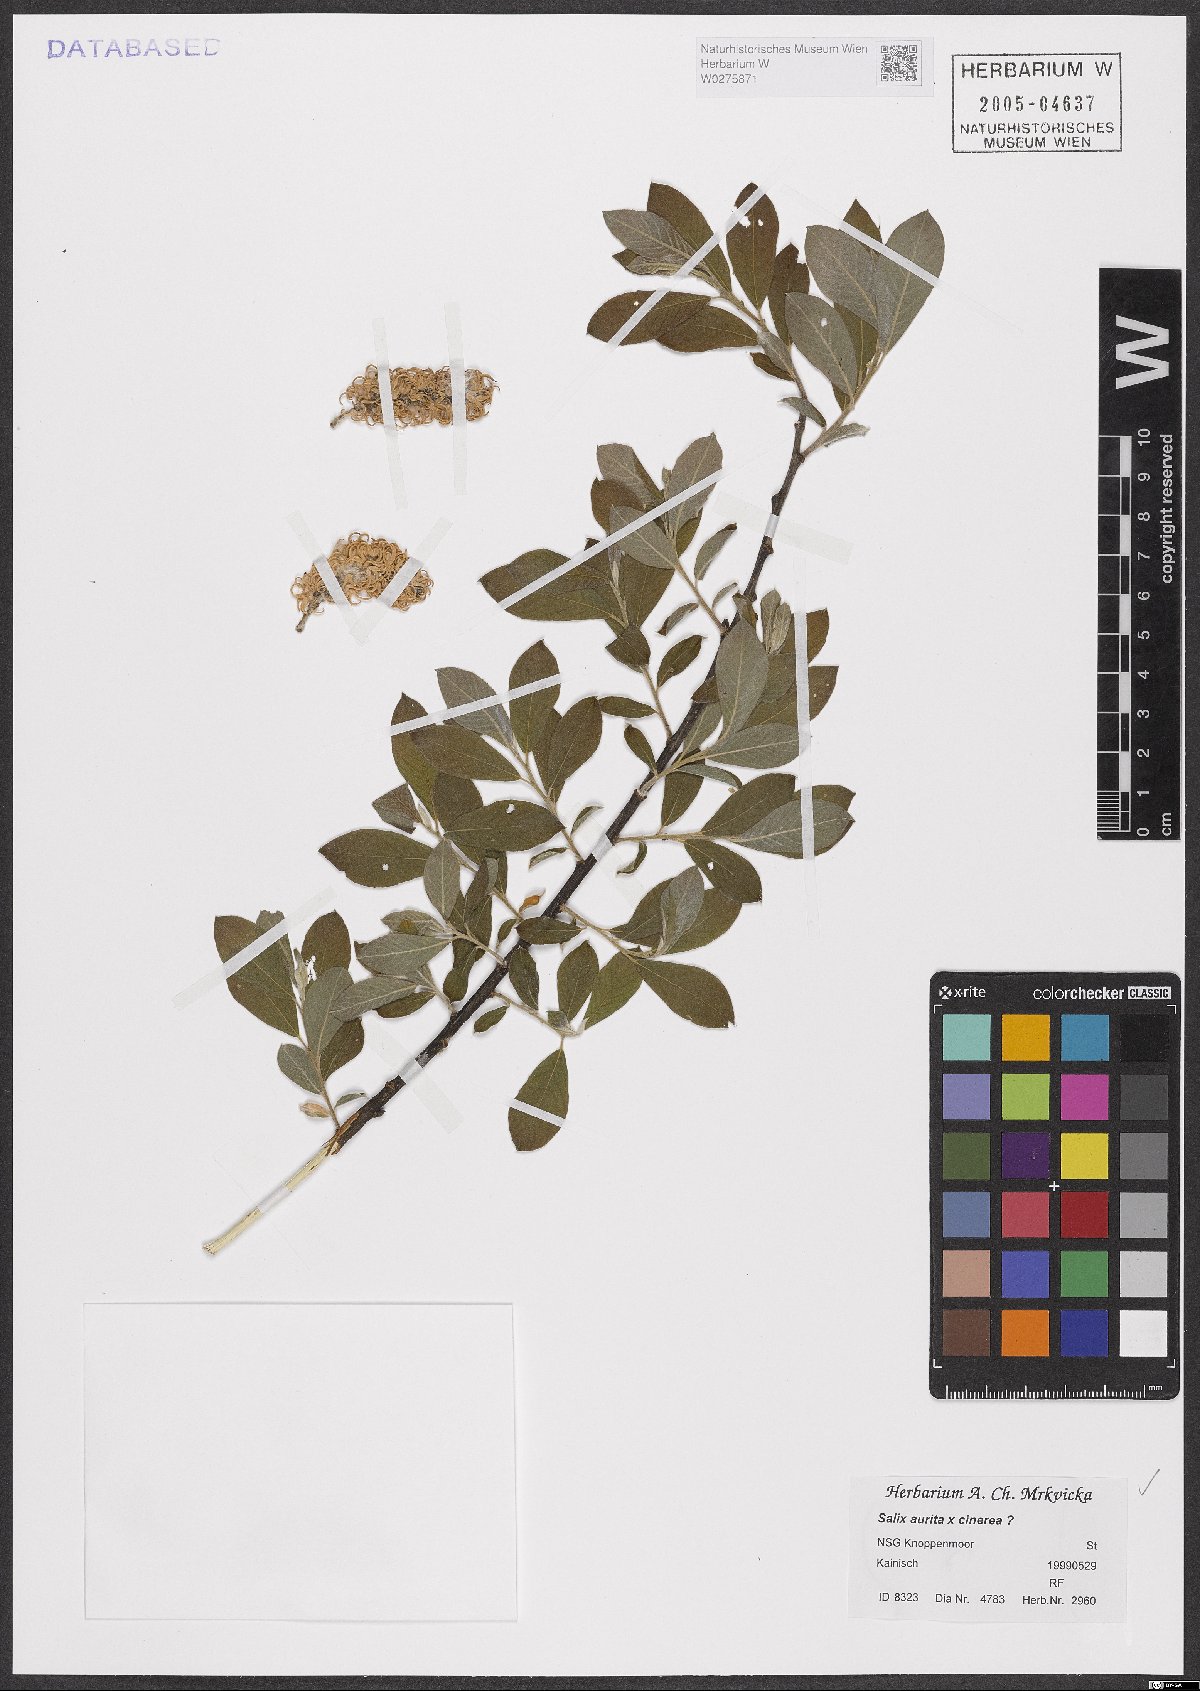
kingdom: Plantae
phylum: Tracheophyta
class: Magnoliopsida
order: Malpighiales
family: Salicaceae
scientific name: Salicaceae
